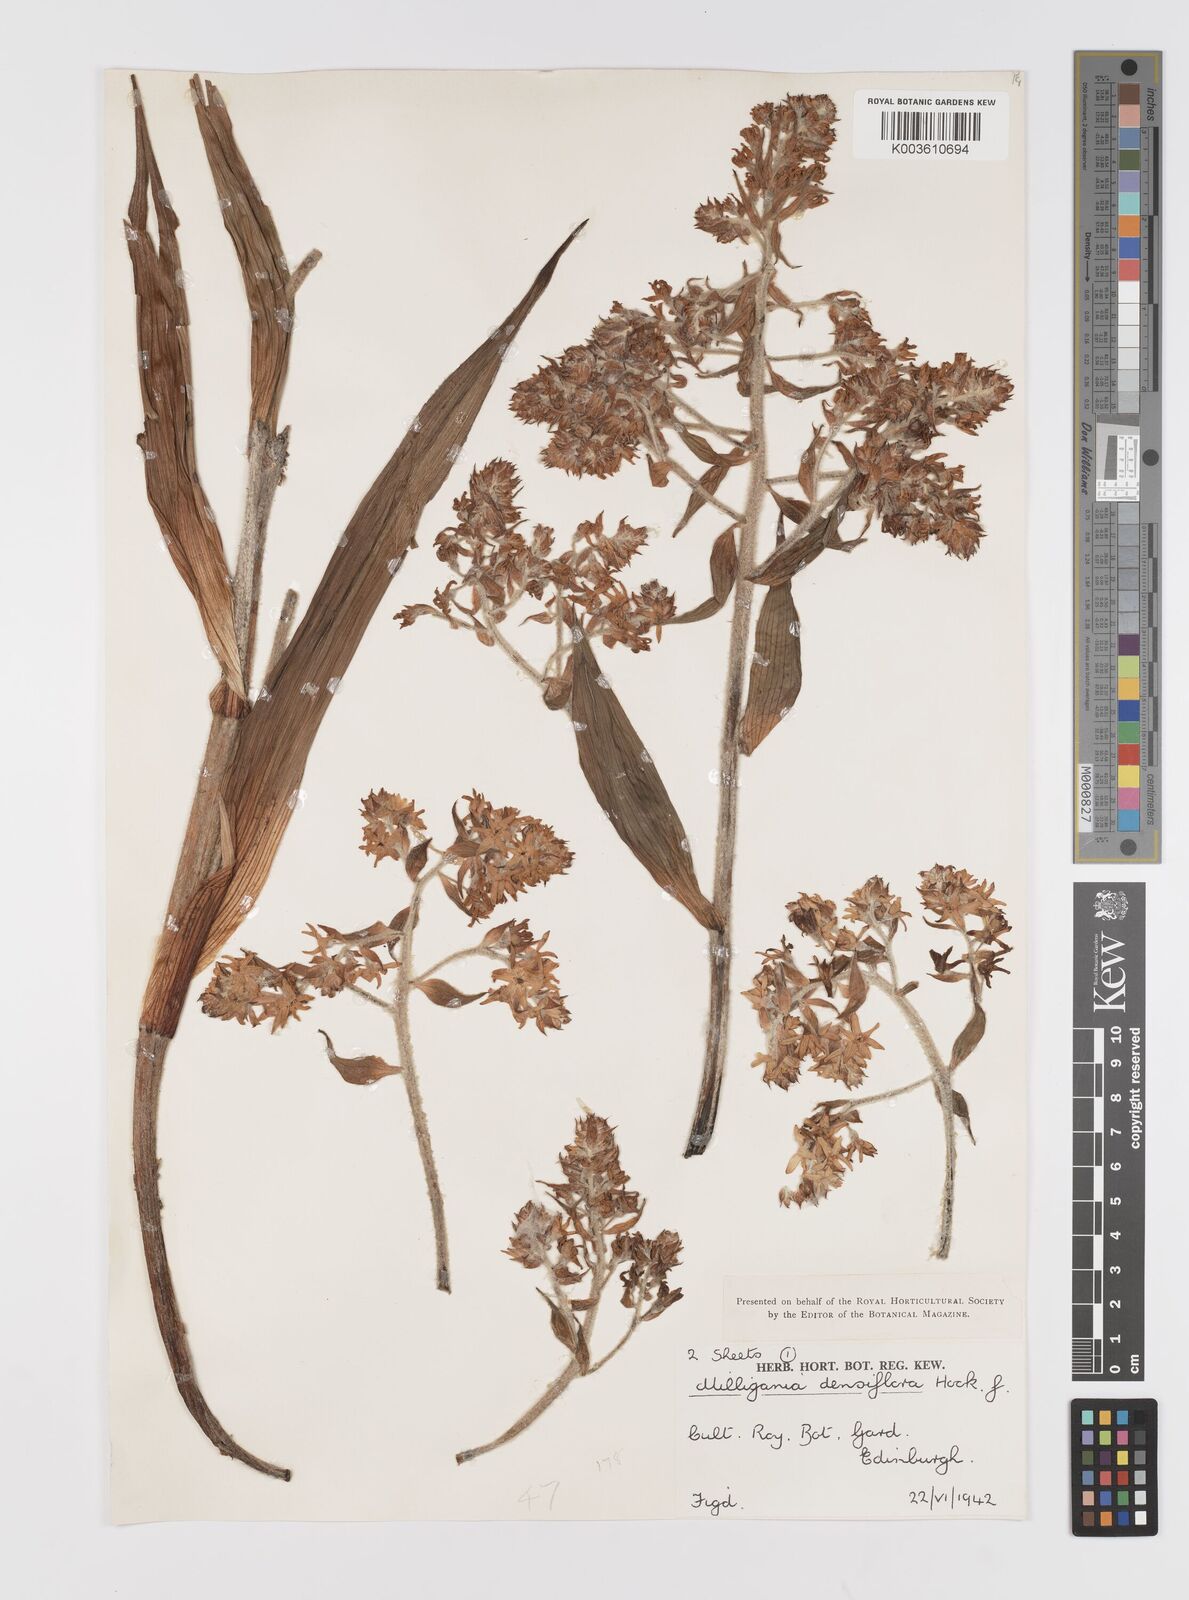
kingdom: Plantae
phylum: Tracheophyta
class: Liliopsida
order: Asparagales
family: Asteliaceae
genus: Milligania
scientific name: Milligania densiflora
